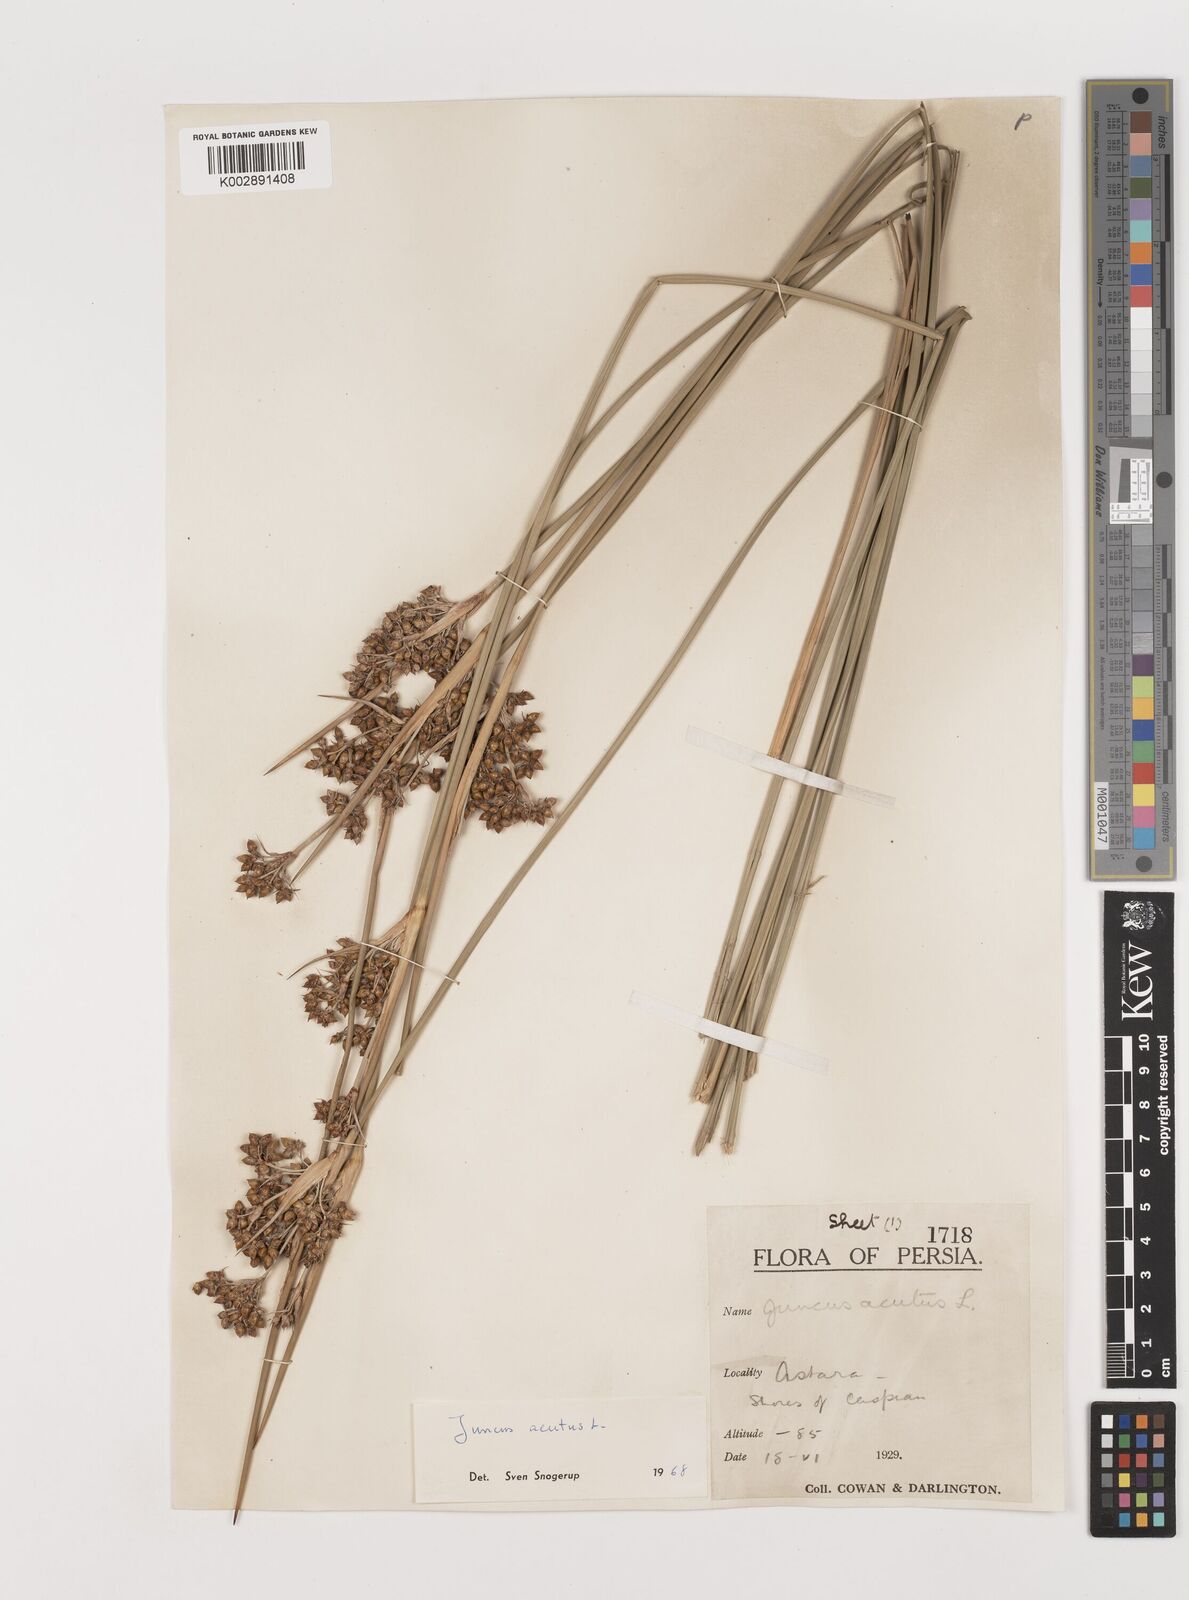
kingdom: Plantae
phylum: Tracheophyta
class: Liliopsida
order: Poales
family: Juncaceae
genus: Juncus
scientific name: Juncus acutus
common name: Sharp rush
